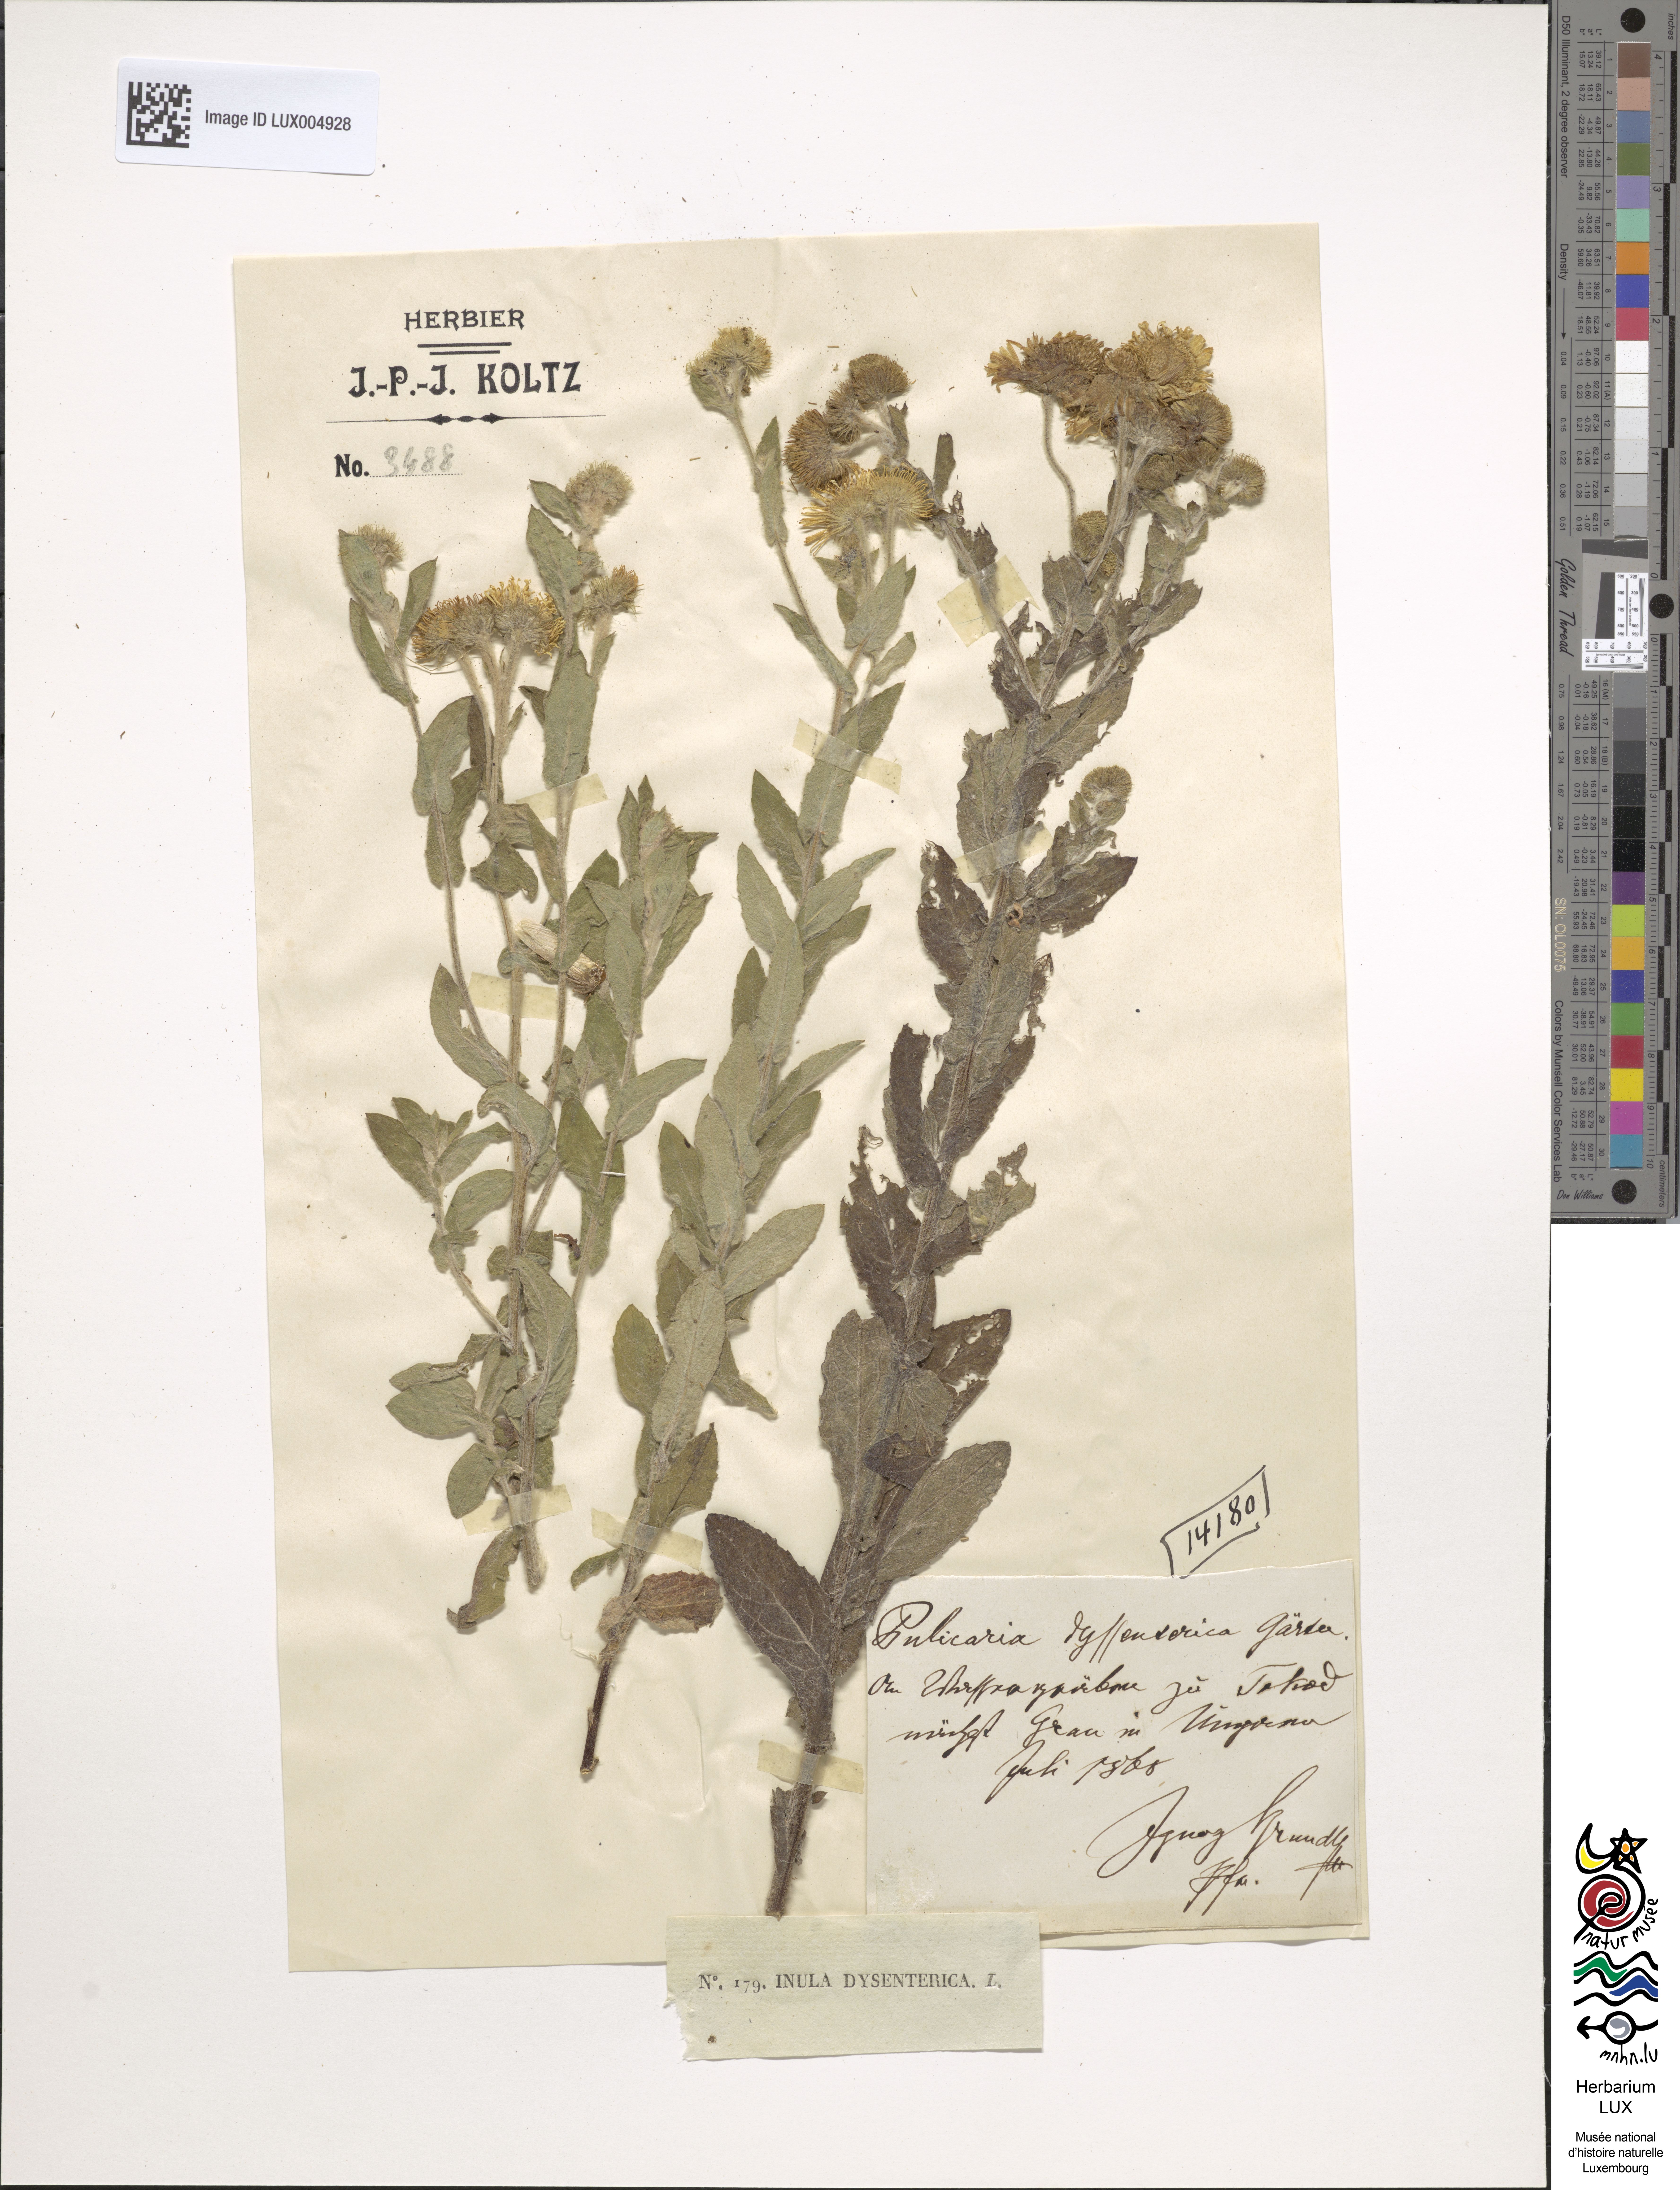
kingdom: Plantae
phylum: Tracheophyta
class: Magnoliopsida
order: Asterales
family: Asteraceae
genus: Pulicaria
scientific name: Pulicaria dysenterica
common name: Common fleabane
